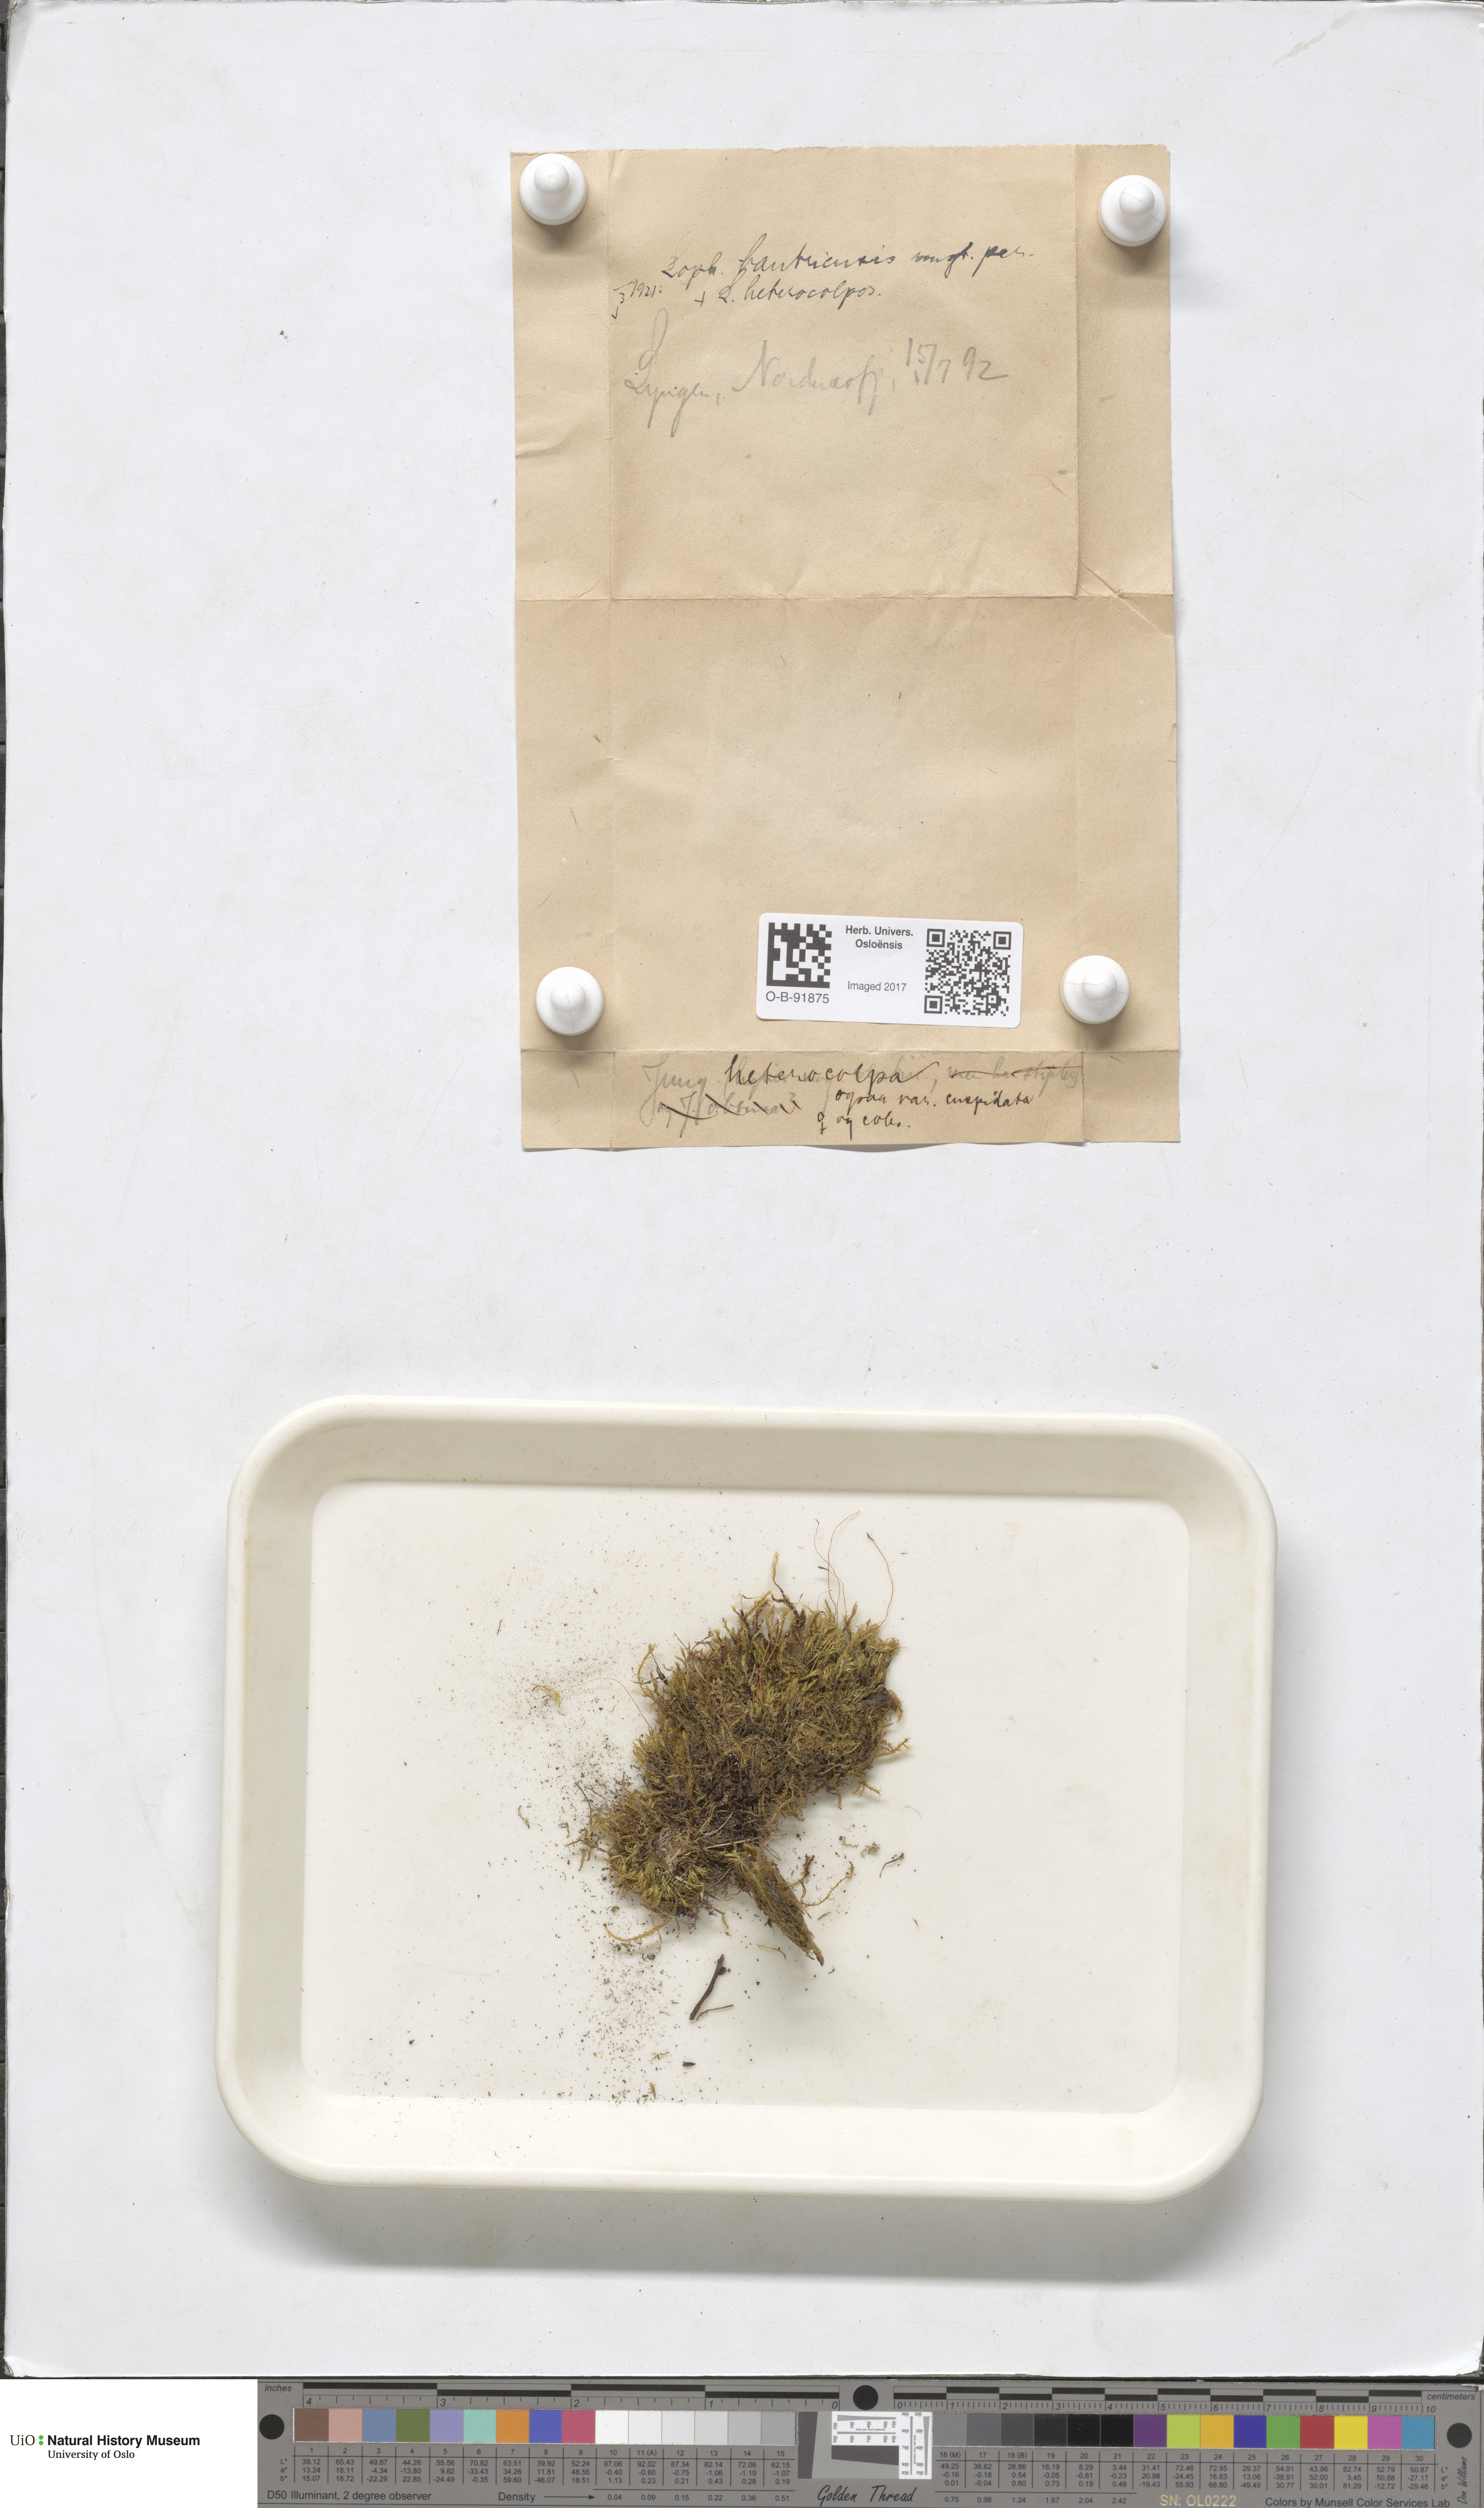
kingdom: Plantae
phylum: Marchantiophyta
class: Jungermanniopsida
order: Jungermanniales
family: Jungermanniaceae
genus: Mesoptychia
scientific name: Mesoptychia bantriensis
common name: Bantry notchwort
